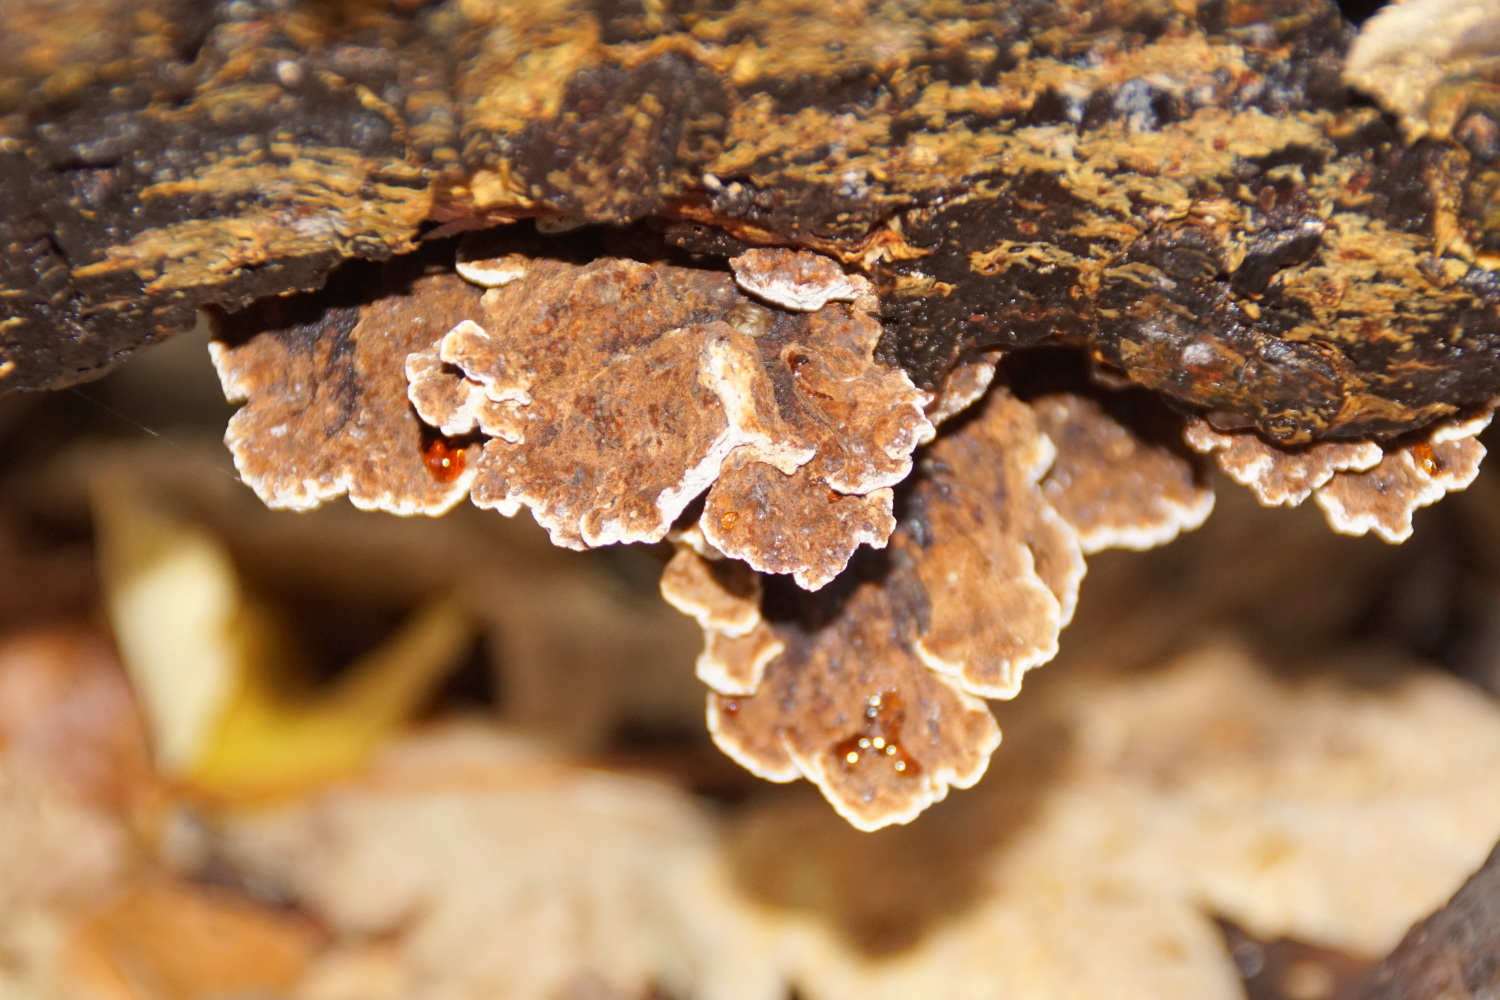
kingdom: Fungi
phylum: Basidiomycota
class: Agaricomycetes
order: Polyporales
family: Ischnodermataceae
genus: Ischnoderma
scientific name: Ischnoderma benzoinum
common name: gran-tjæreporesvamp
